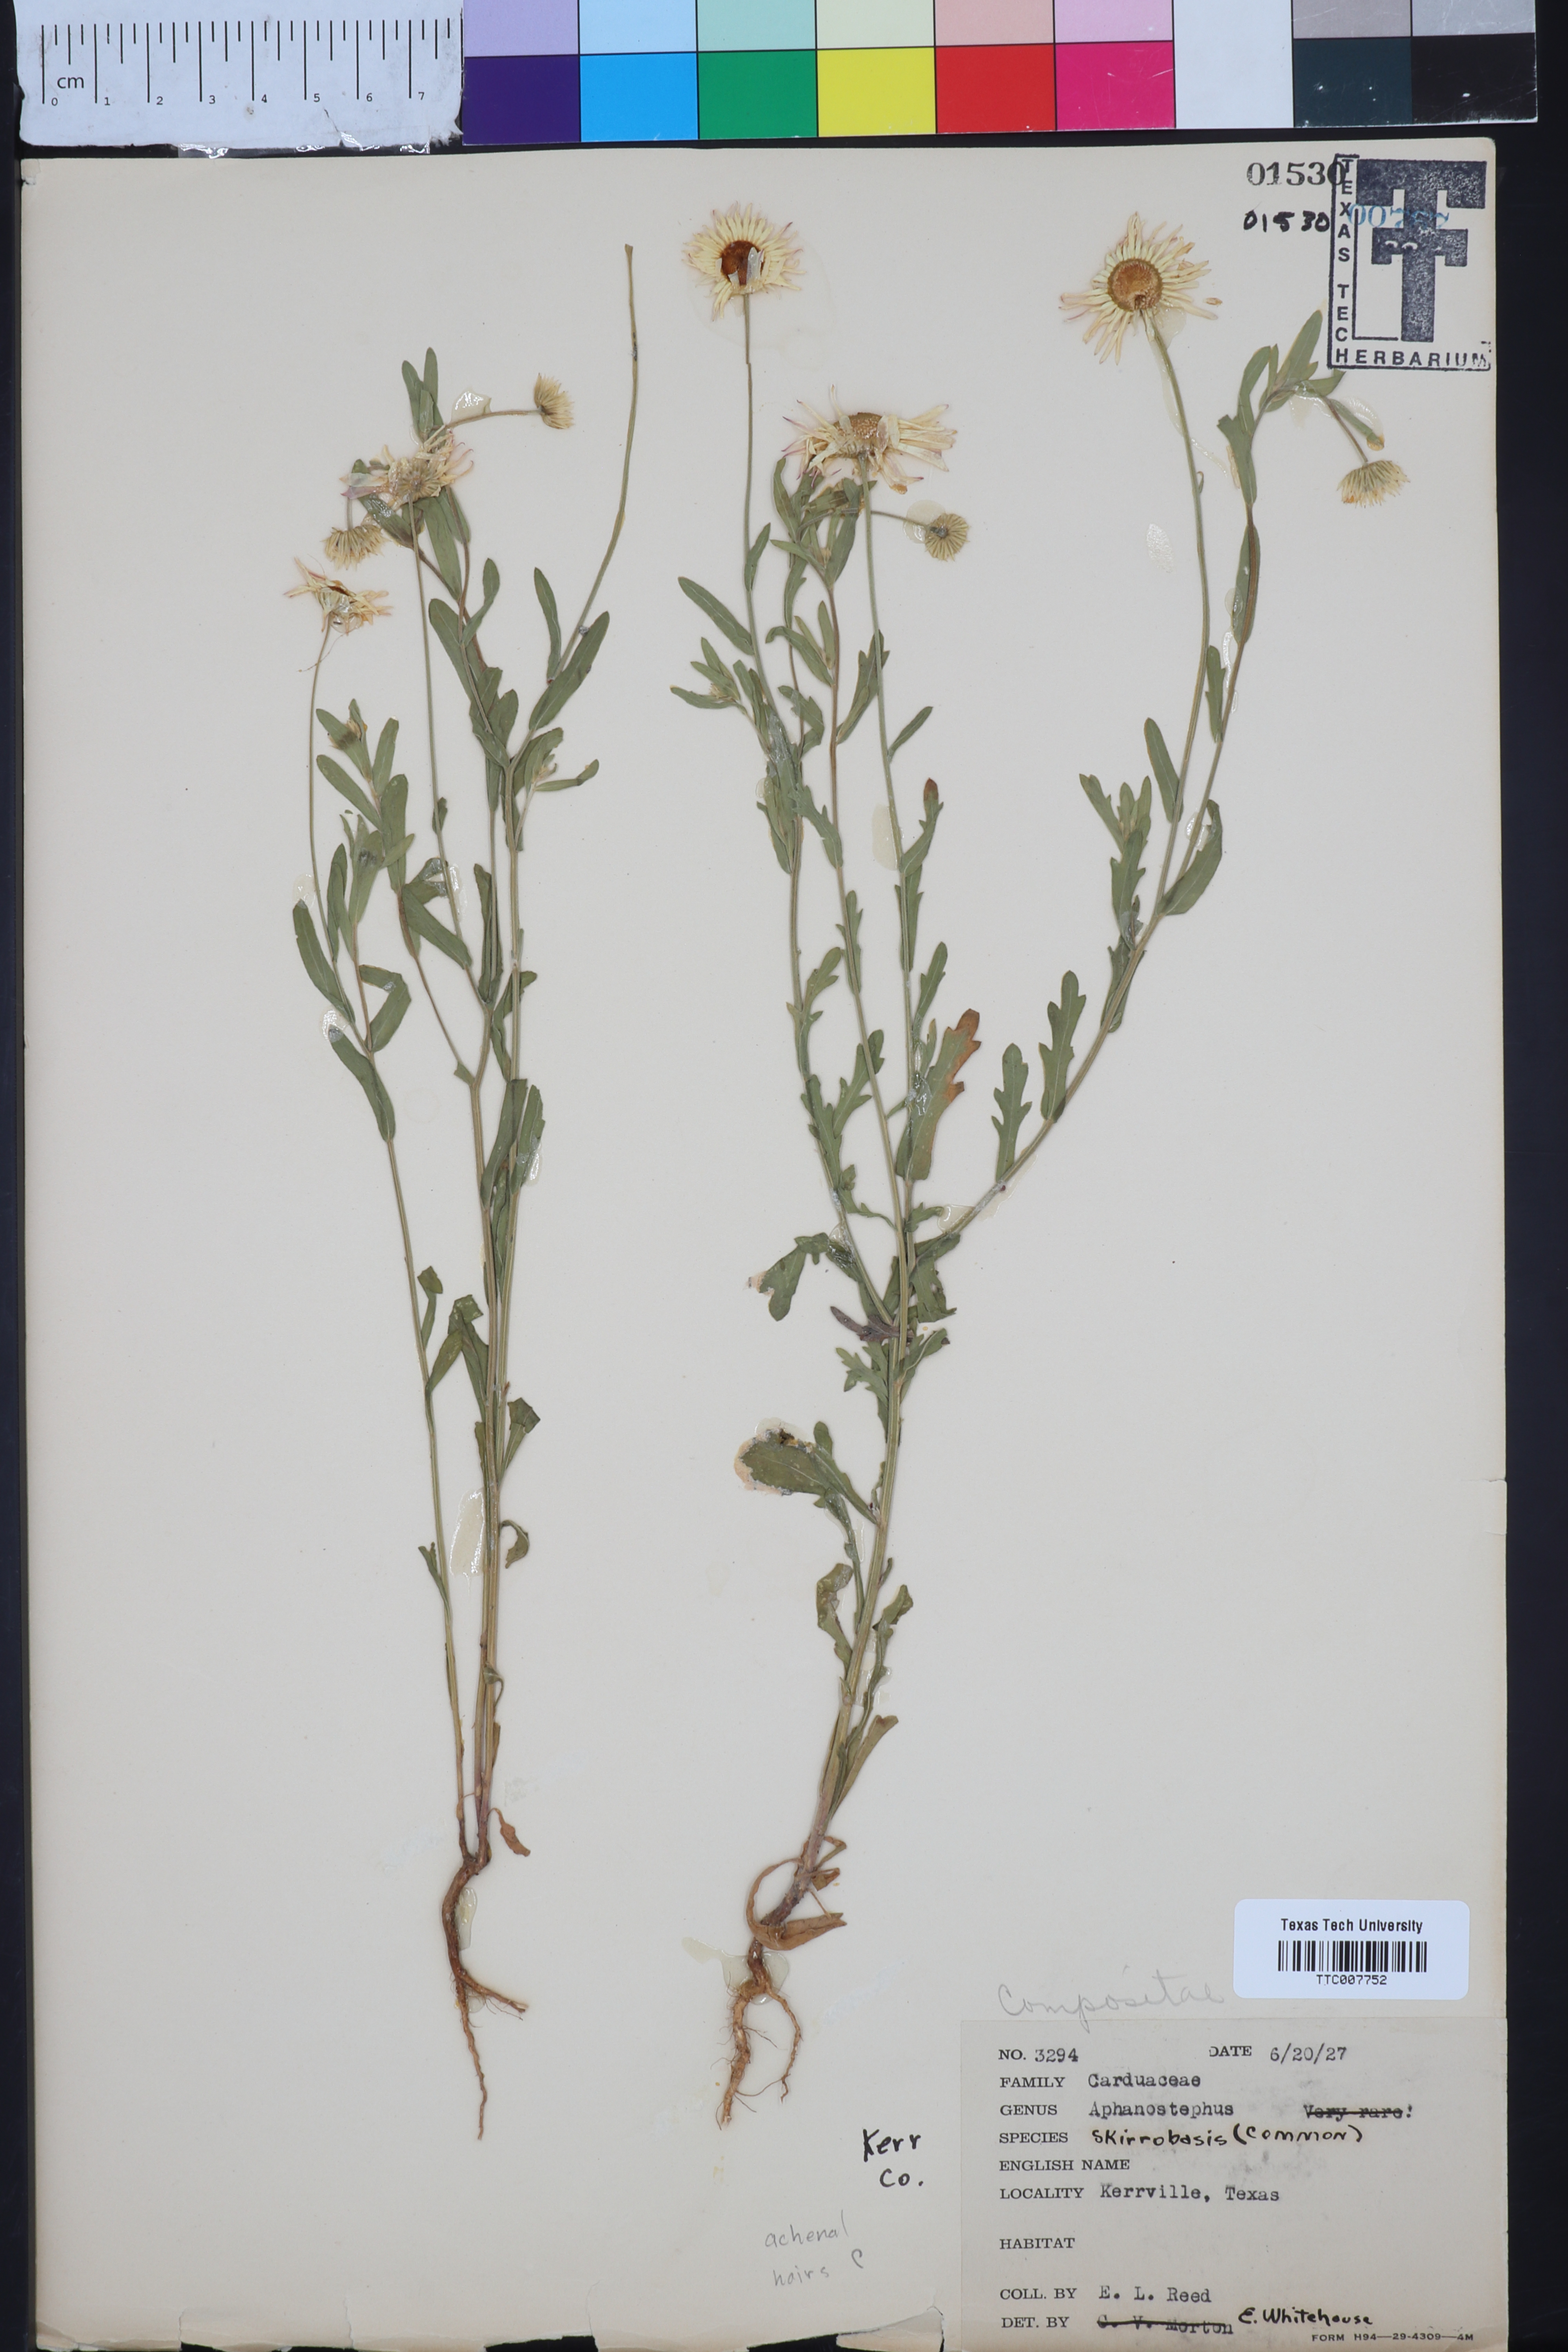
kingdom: Plantae
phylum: Tracheophyta
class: Magnoliopsida
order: Asterales
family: Asteraceae
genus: Aphanostephus
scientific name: Aphanostephus skirrhobasis
